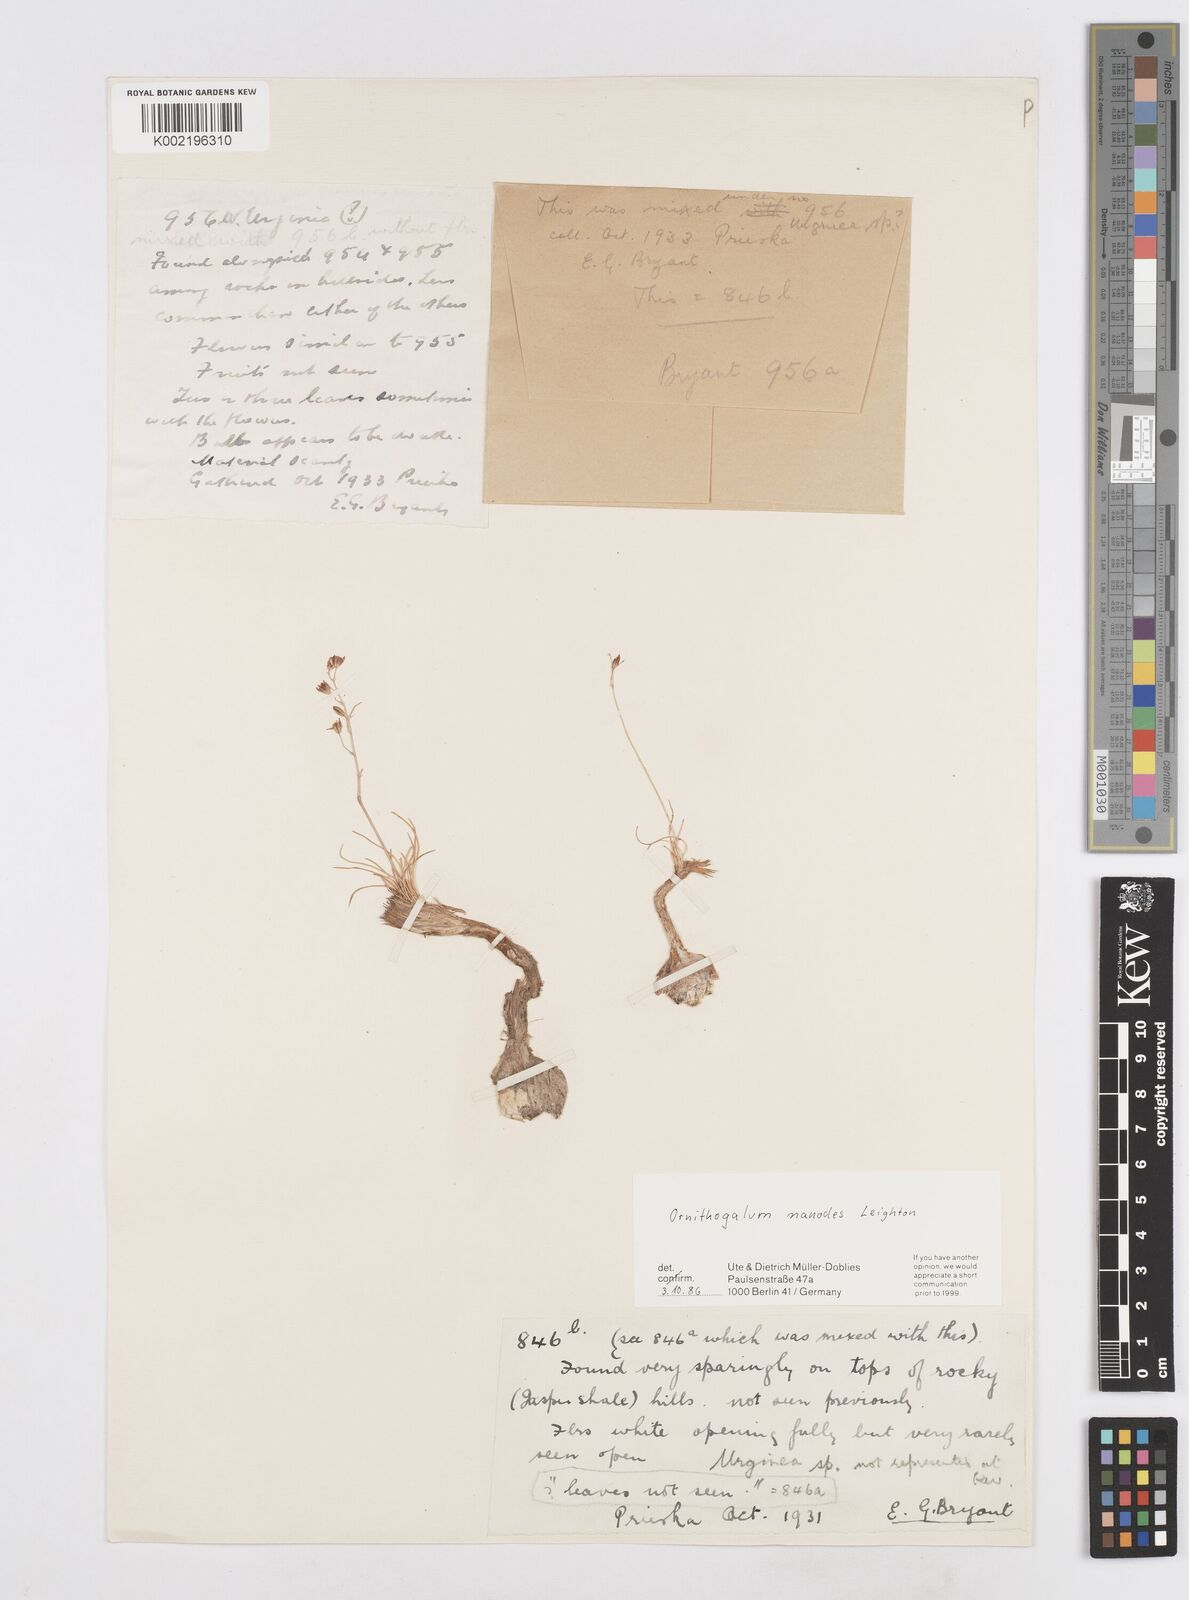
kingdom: Plantae
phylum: Tracheophyta
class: Liliopsida
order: Asparagales
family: Asparagaceae
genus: Ornithogalum
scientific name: Ornithogalum nanodes
